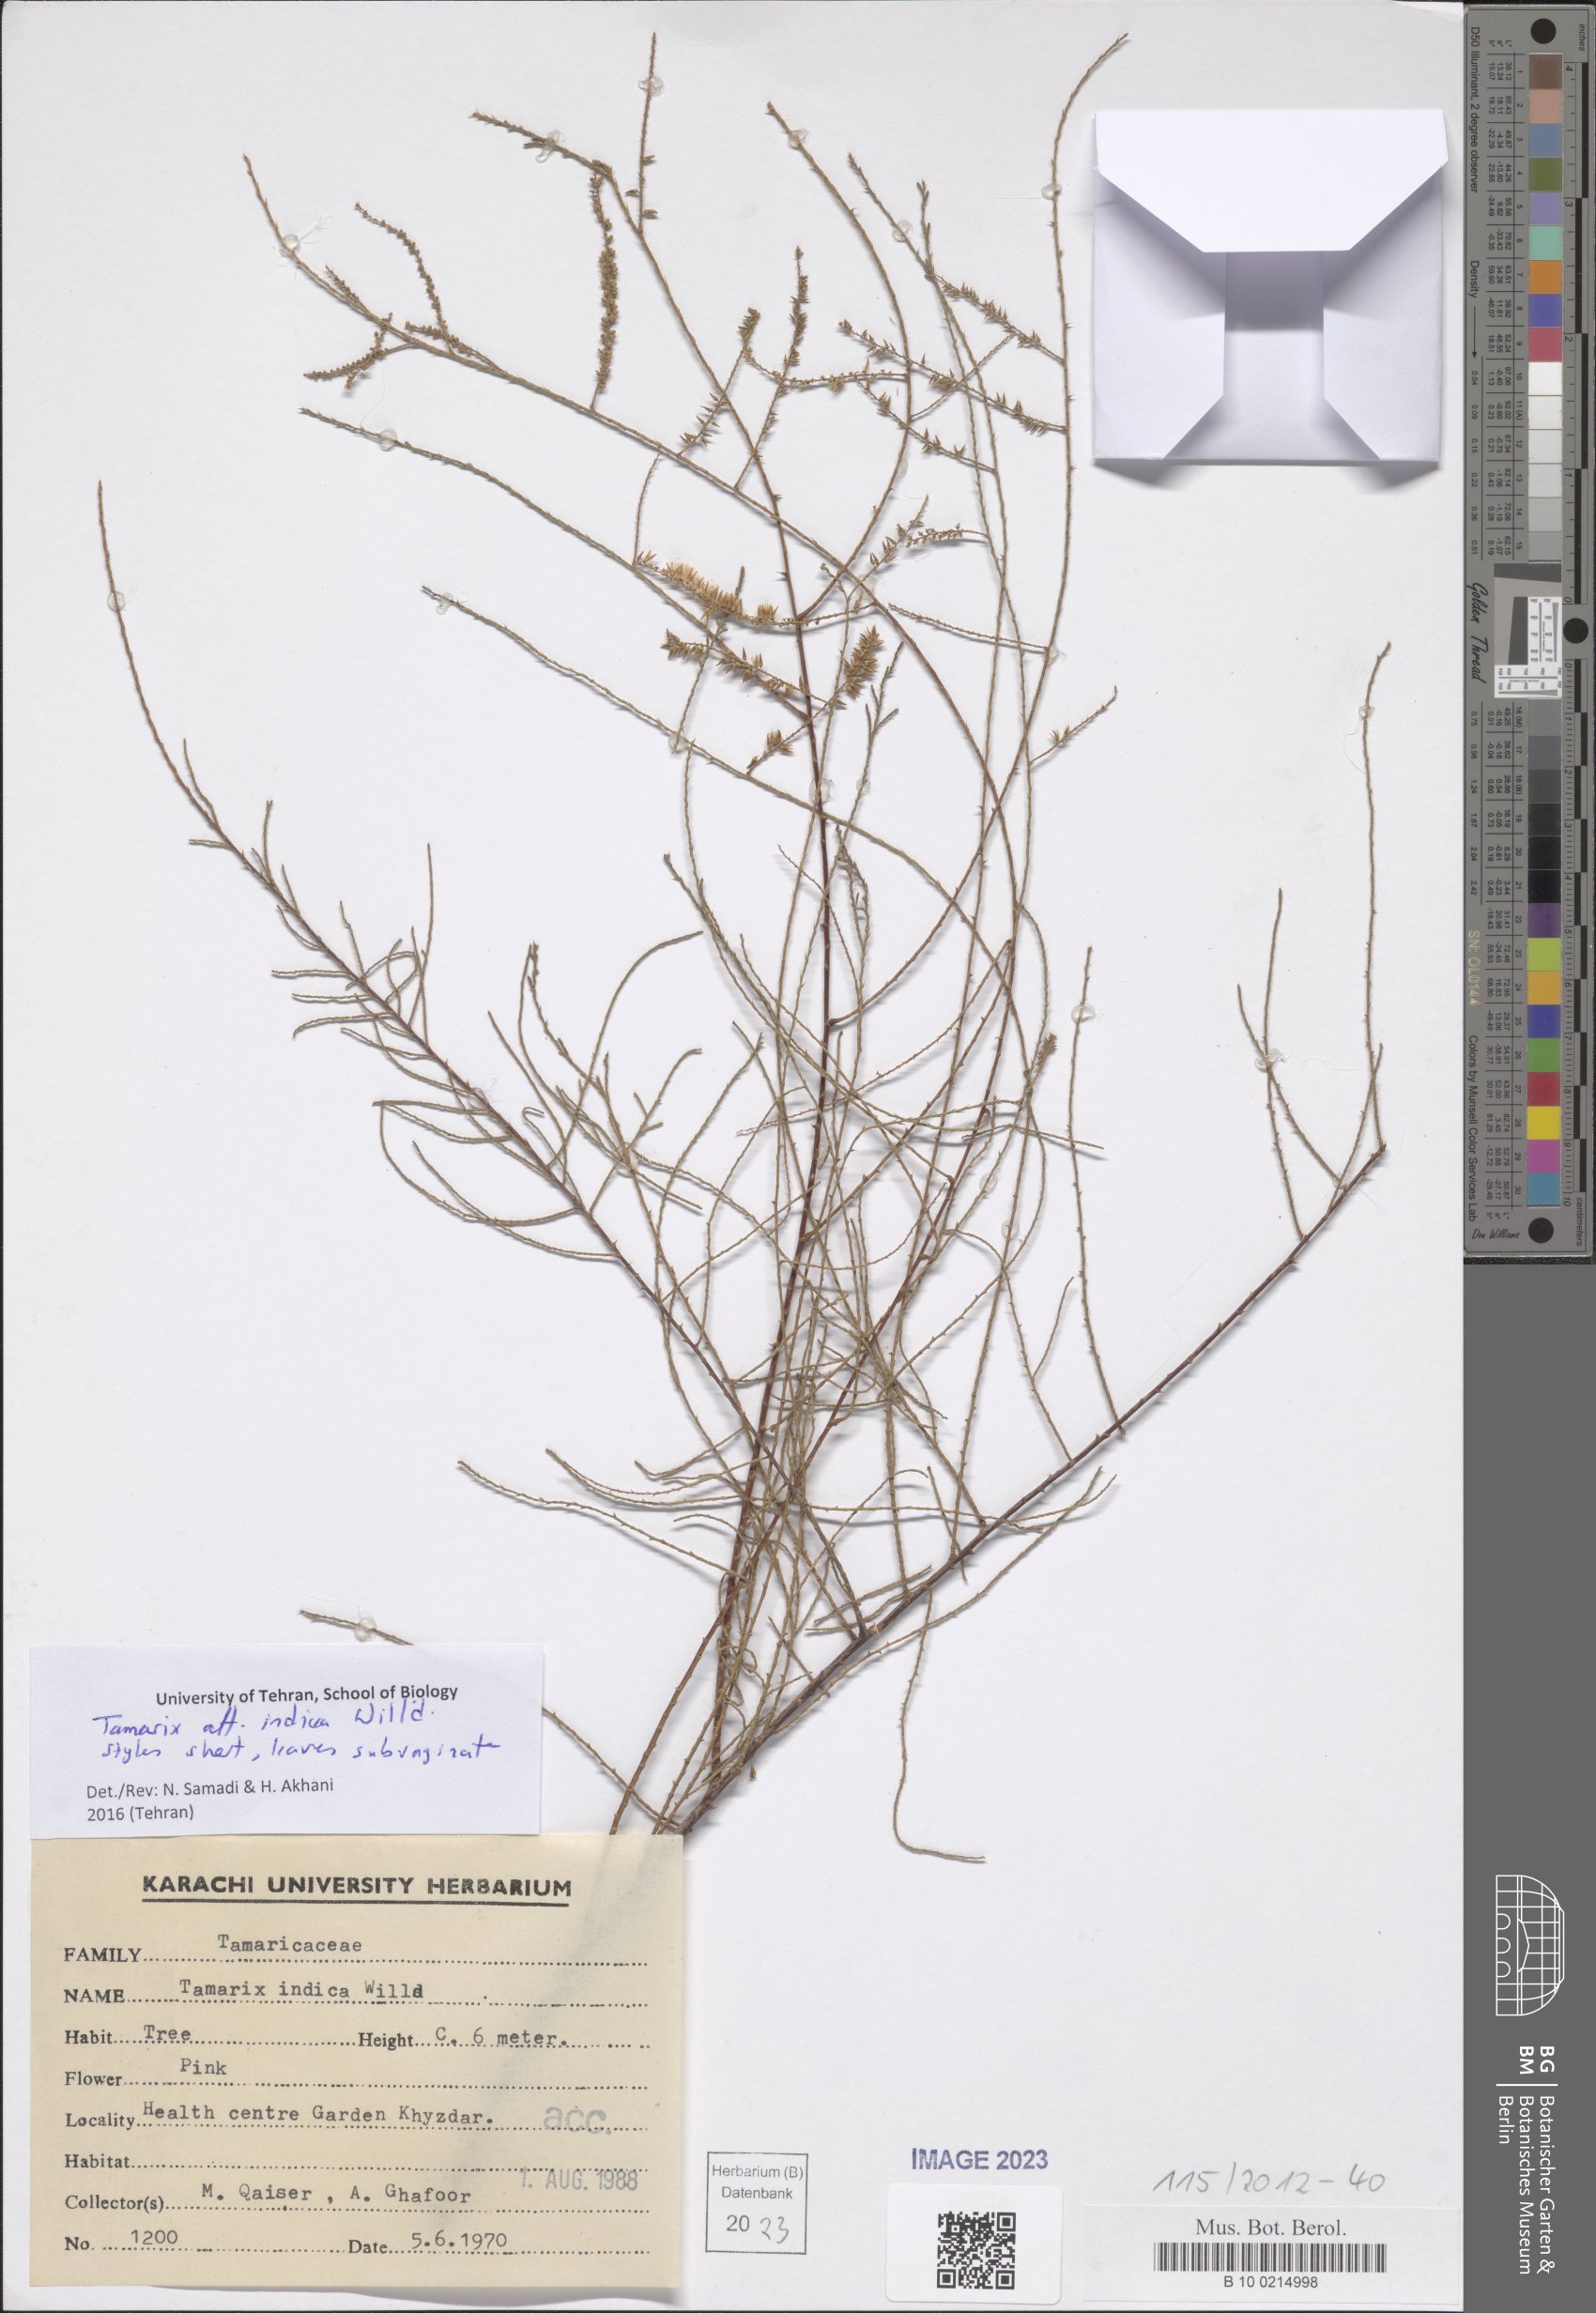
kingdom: Plantae
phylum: Tracheophyta
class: Magnoliopsida
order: Caryophyllales
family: Tamaricaceae
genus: Tamarix
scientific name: Tamarix indica
